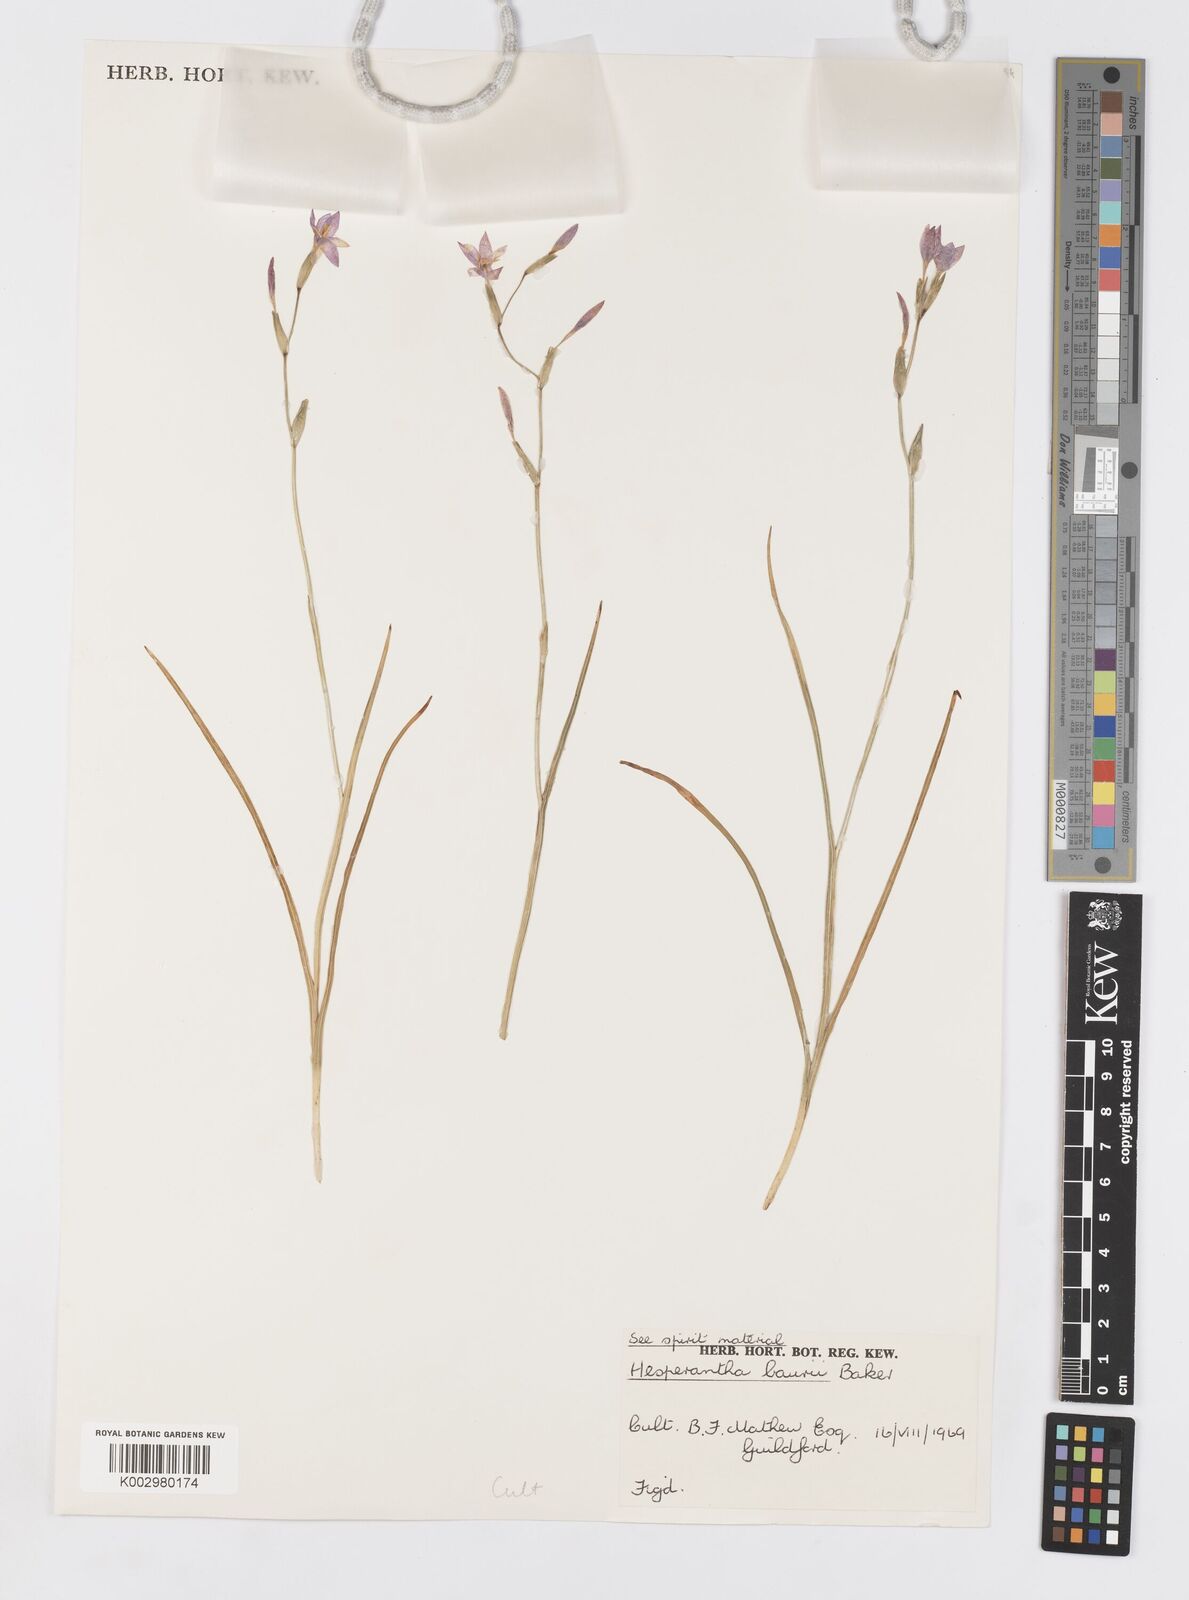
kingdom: Plantae
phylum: Tracheophyta
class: Liliopsida
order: Asparagales
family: Iridaceae
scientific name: Iridaceae
